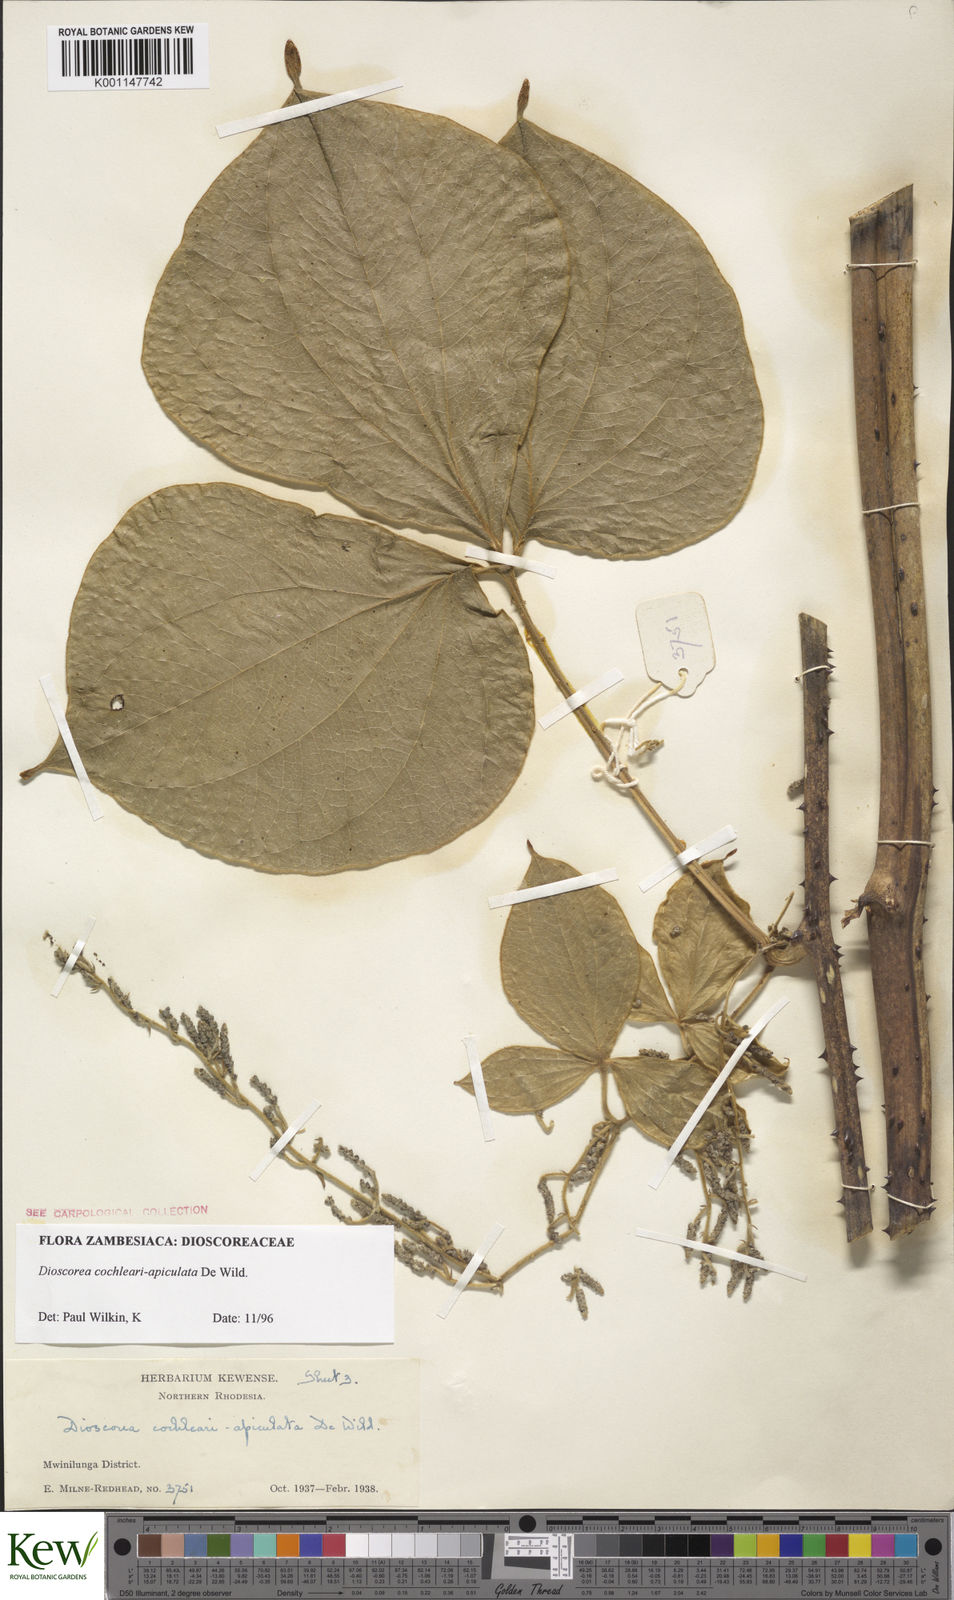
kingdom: Plantae
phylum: Tracheophyta
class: Liliopsida
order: Dioscoreales
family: Dioscoreaceae
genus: Dioscorea
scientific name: Dioscorea cochleariapiculata
